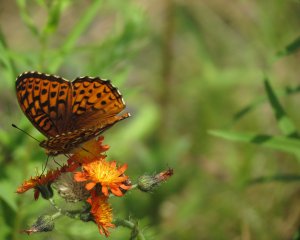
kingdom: Animalia
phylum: Arthropoda
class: Insecta
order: Lepidoptera
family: Nymphalidae
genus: Speyeria
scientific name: Speyeria atlantis
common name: Atlantis Fritillary
